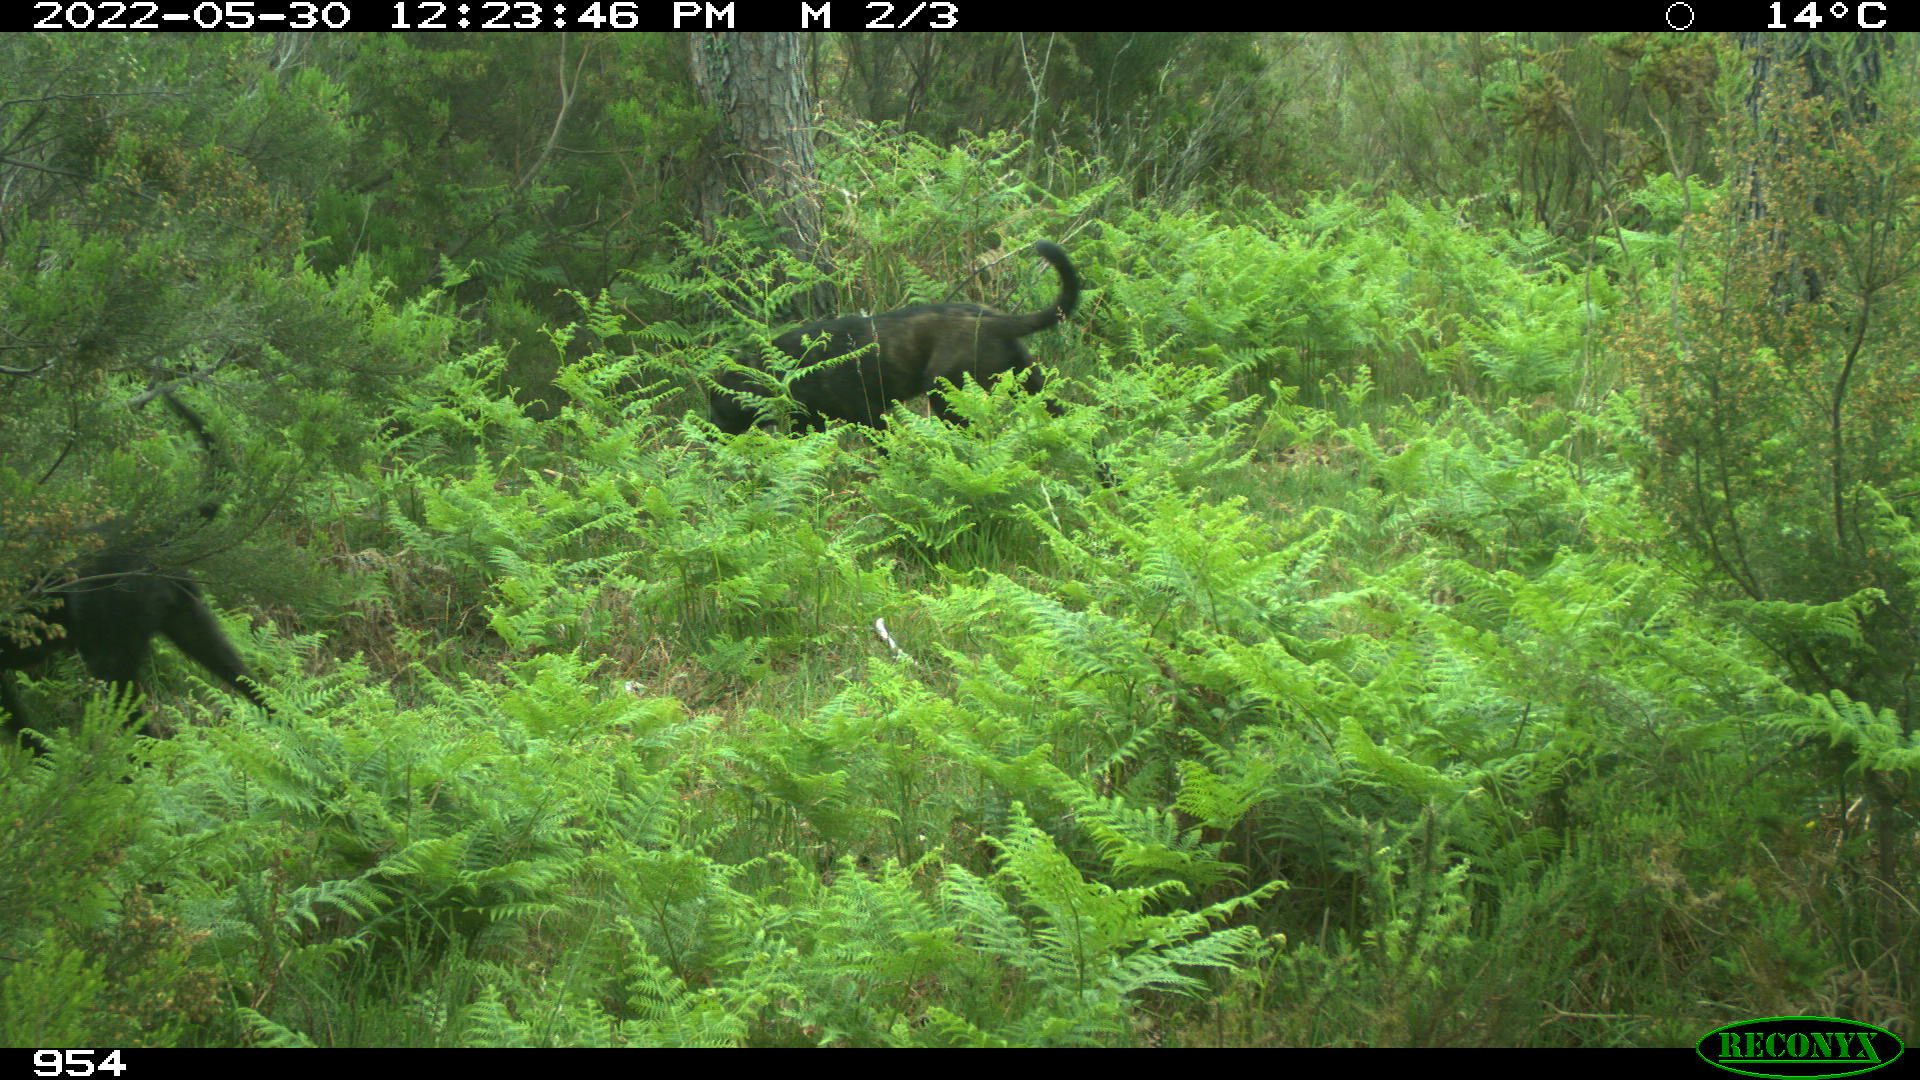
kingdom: Animalia
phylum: Chordata
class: Mammalia
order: Artiodactyla
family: Bovidae
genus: Bos
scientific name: Bos taurus
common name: Domesticated cattle
